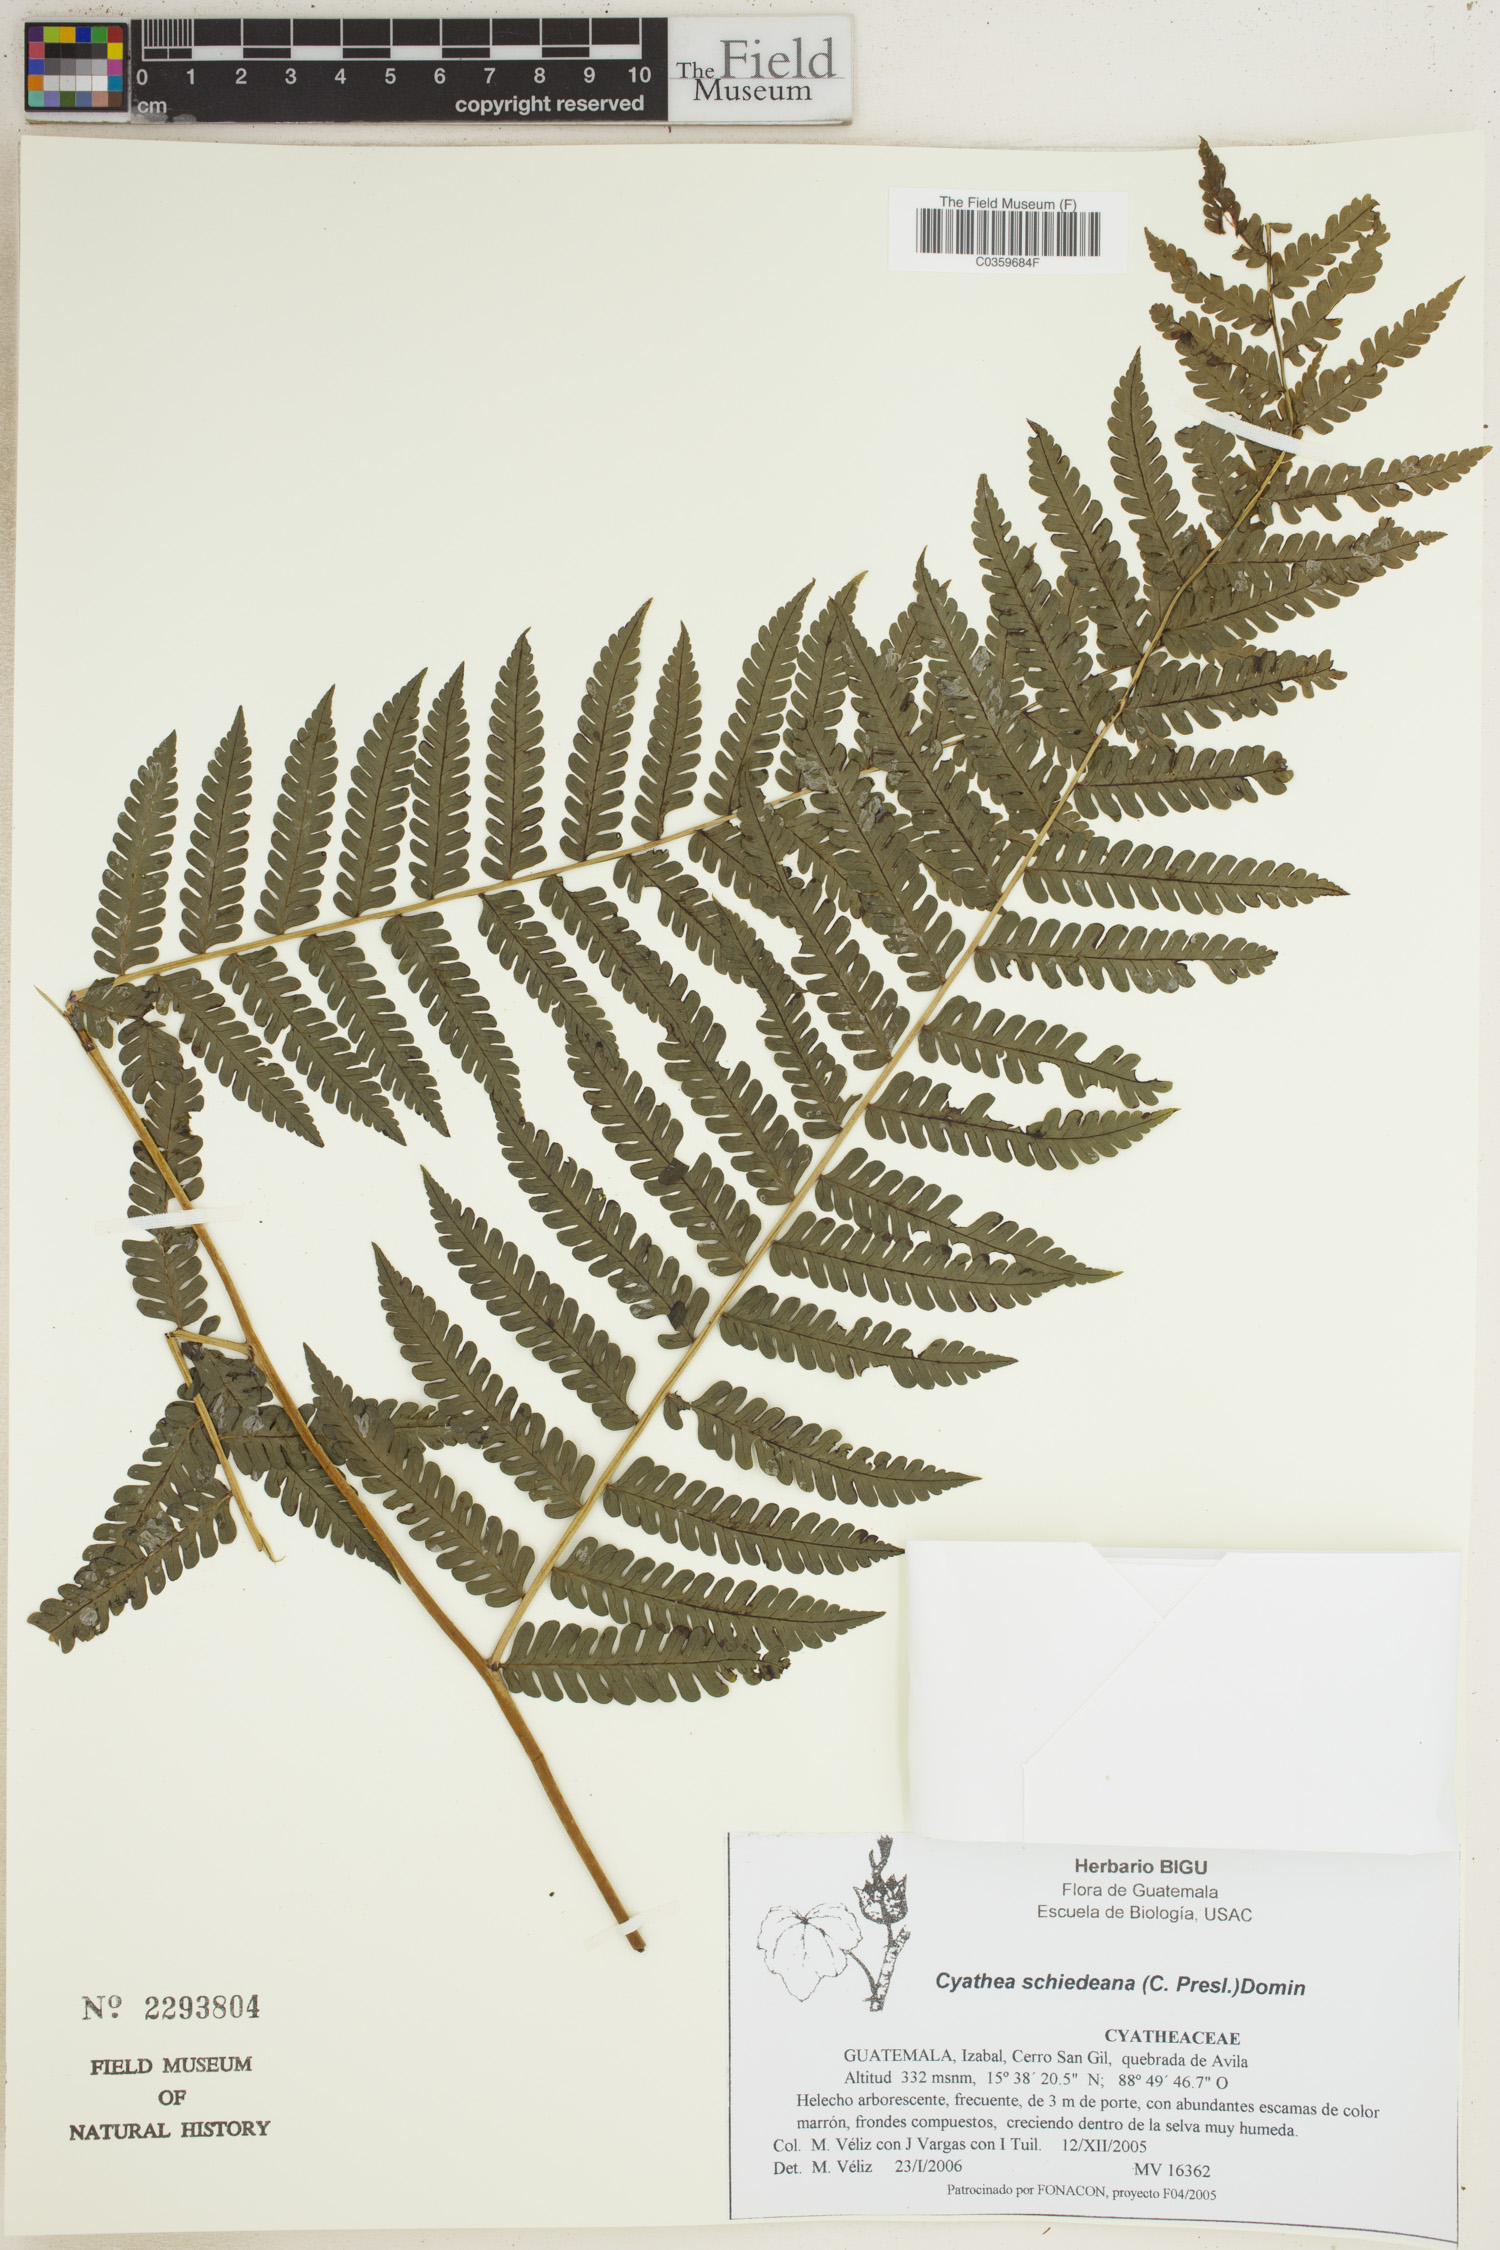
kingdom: Plantae
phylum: Tracheophyta
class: Polypodiopsida
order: Cyatheales
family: Cyatheaceae
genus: Cyathea
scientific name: Cyathea schiedeana
